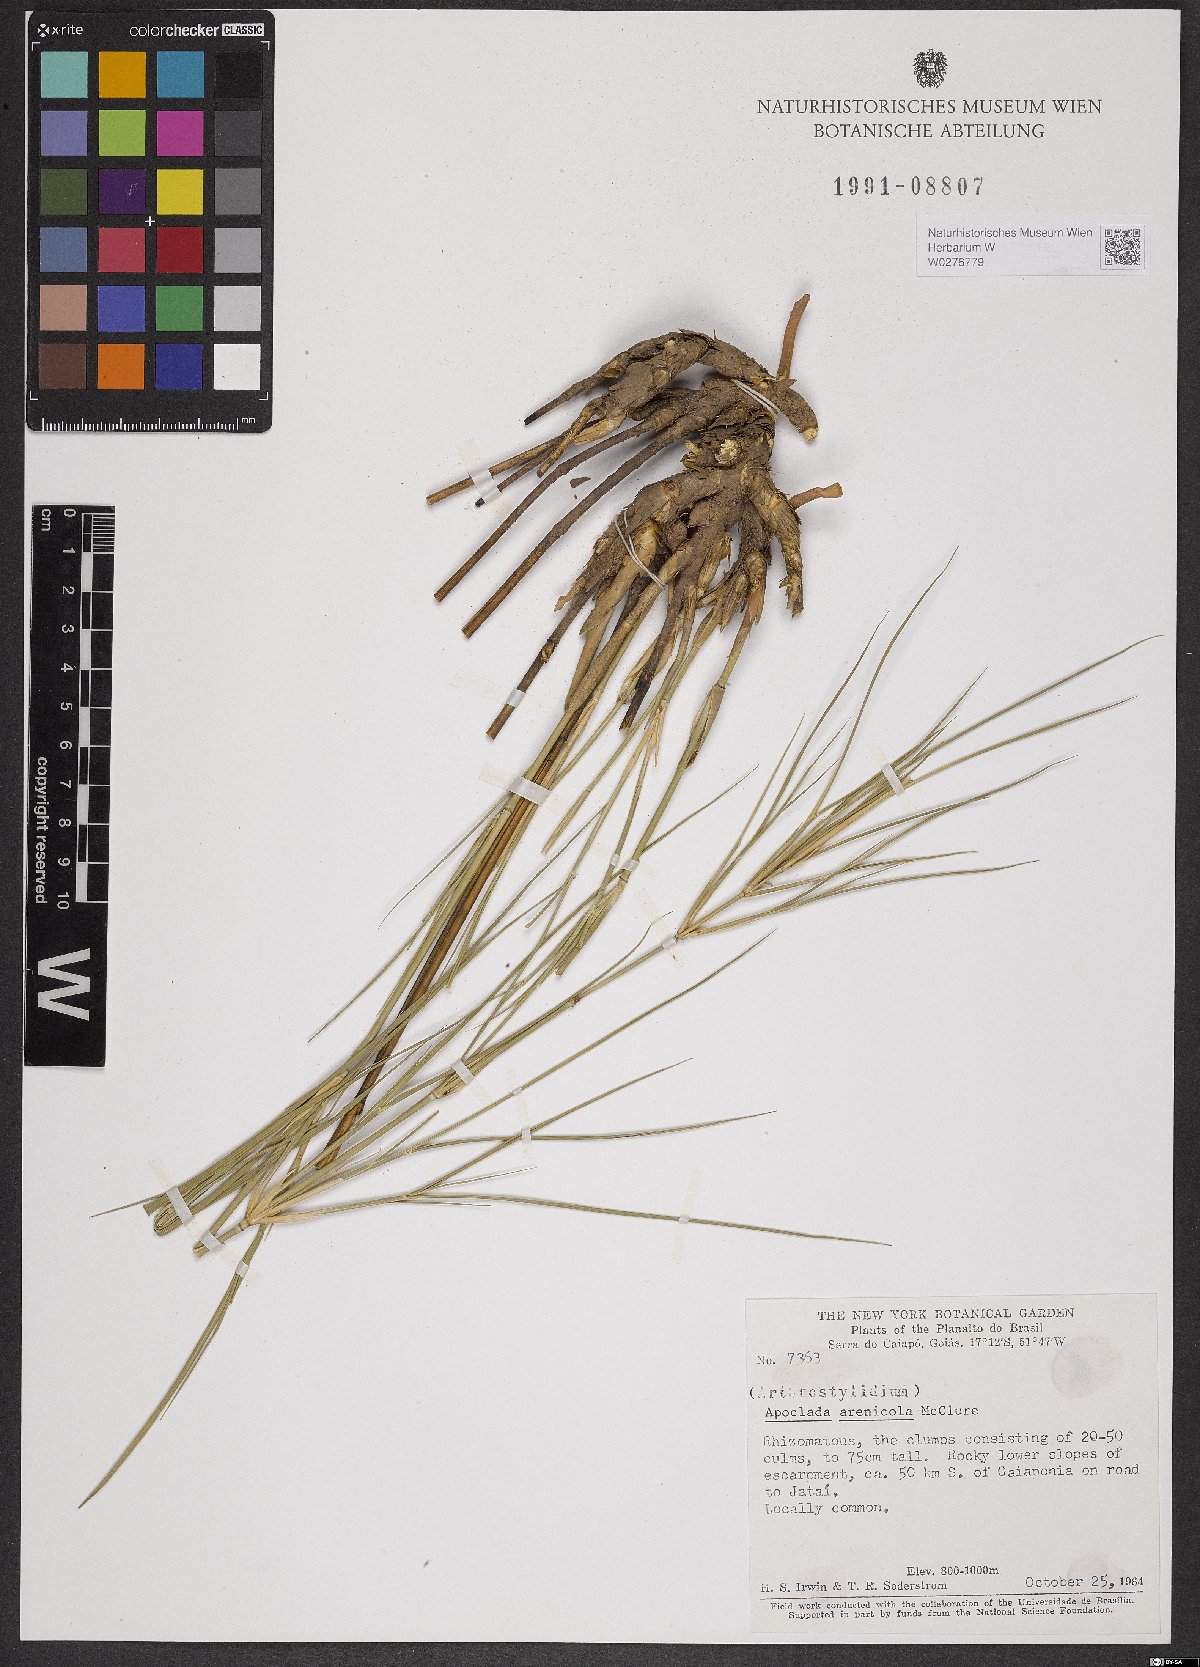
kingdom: Plantae
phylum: Tracheophyta
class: Liliopsida
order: Poales
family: Poaceae
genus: Filgueirasia
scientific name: Filgueirasia arenicola
